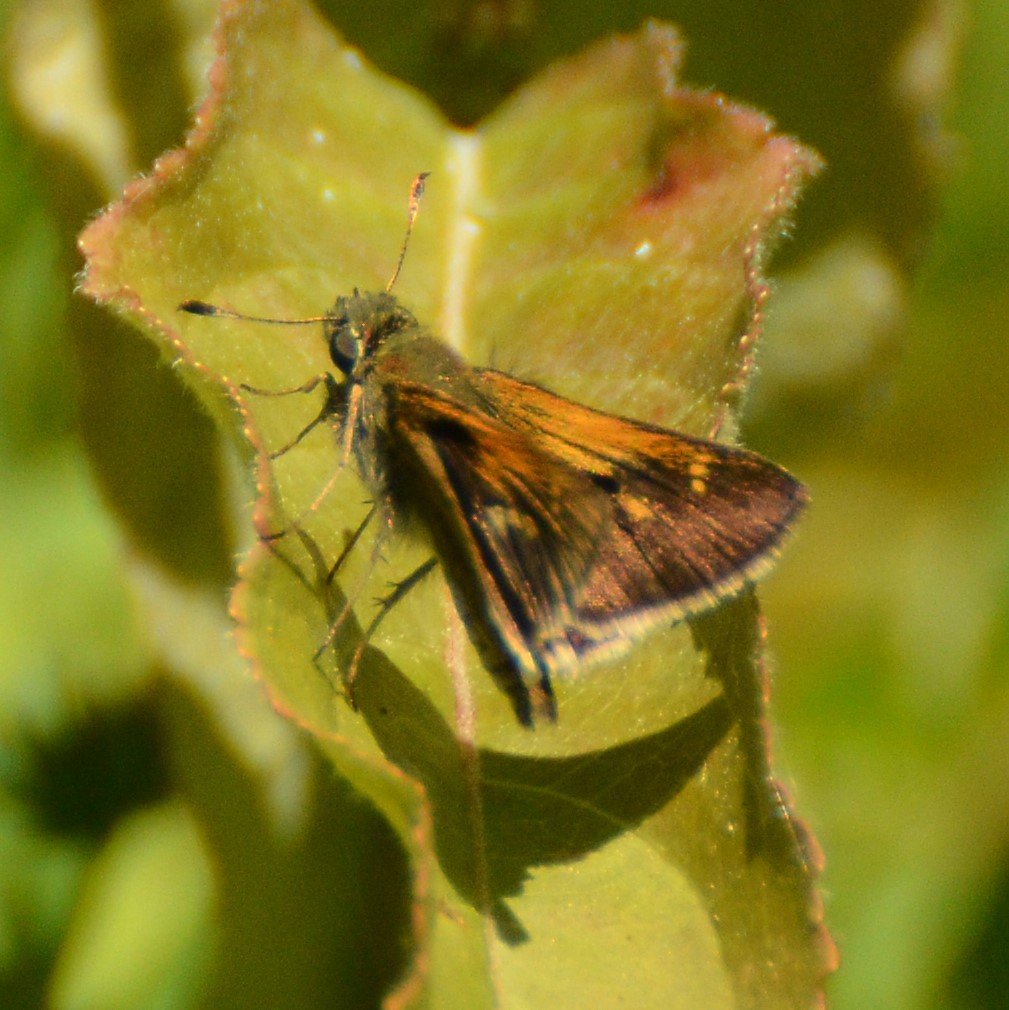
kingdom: Animalia
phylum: Arthropoda
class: Insecta
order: Lepidoptera
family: Hesperiidae
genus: Polites
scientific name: Polites themistocles
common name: Tawny-edged Skipper
